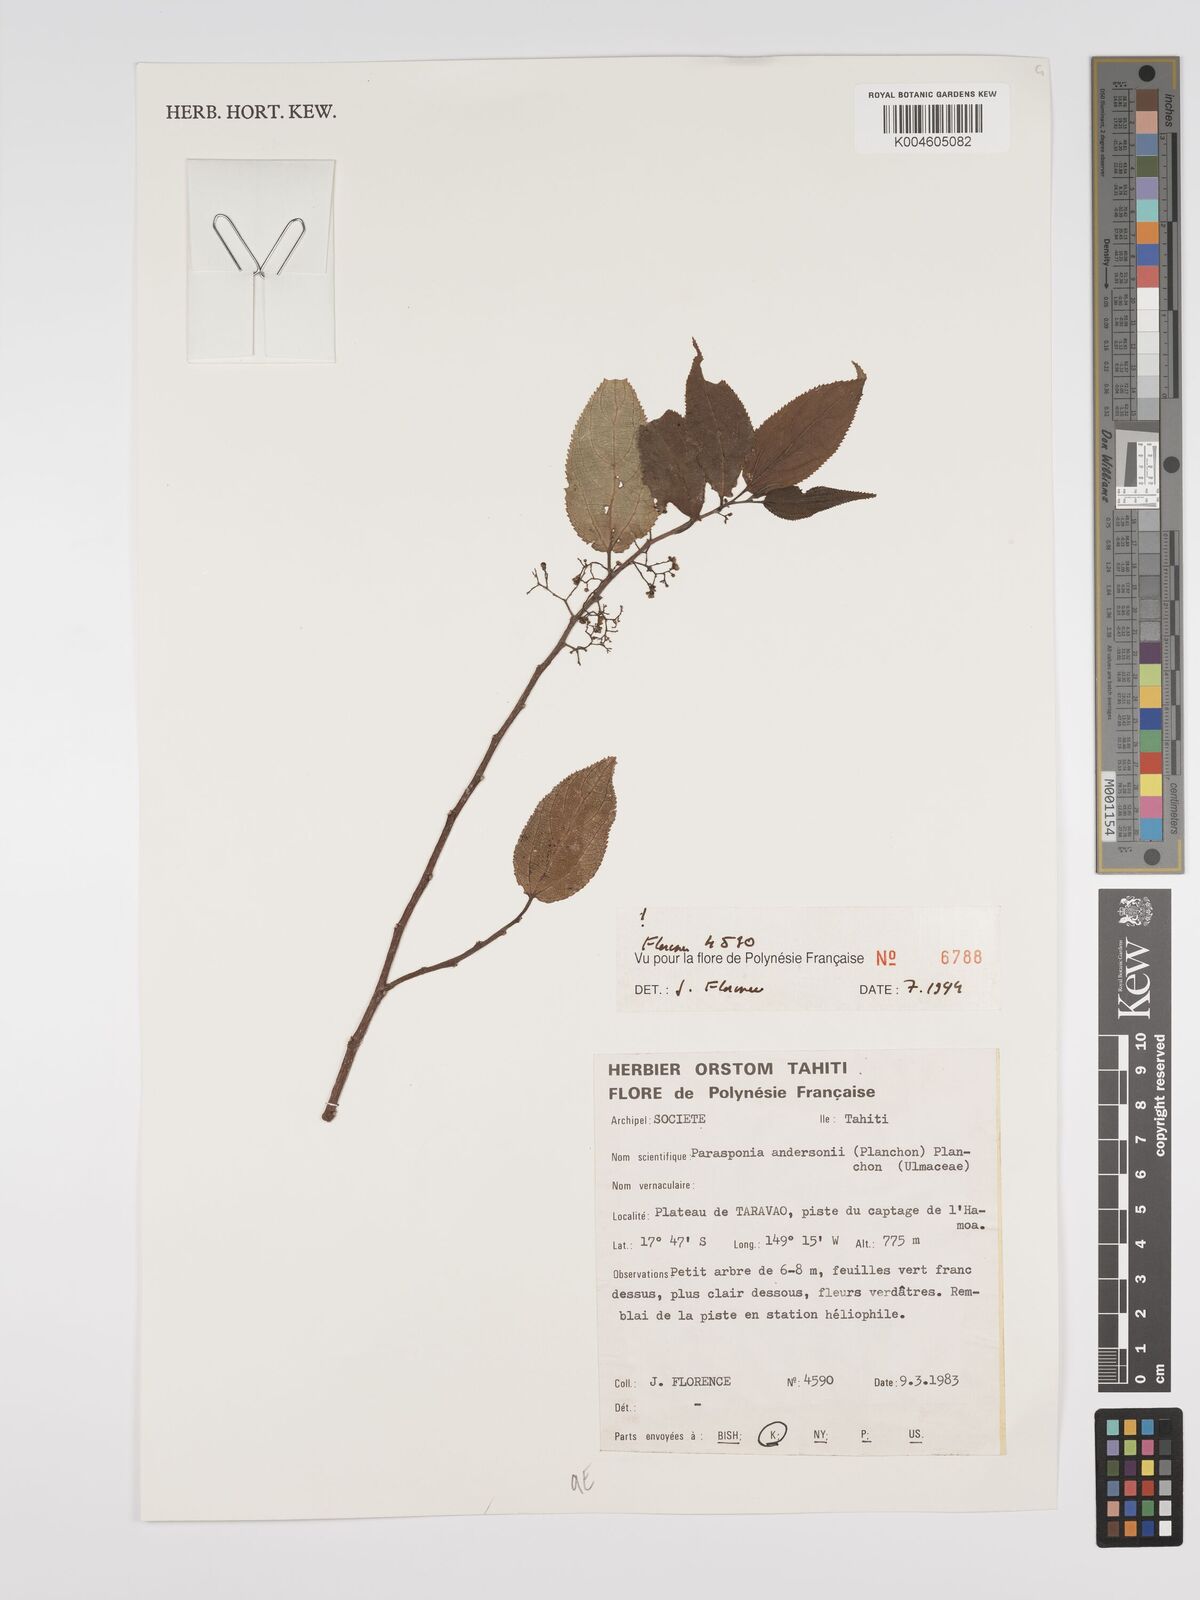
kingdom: Plantae
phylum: Tracheophyta
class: Magnoliopsida
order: Rosales
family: Cannabaceae
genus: Trema
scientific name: Trema andersonii
